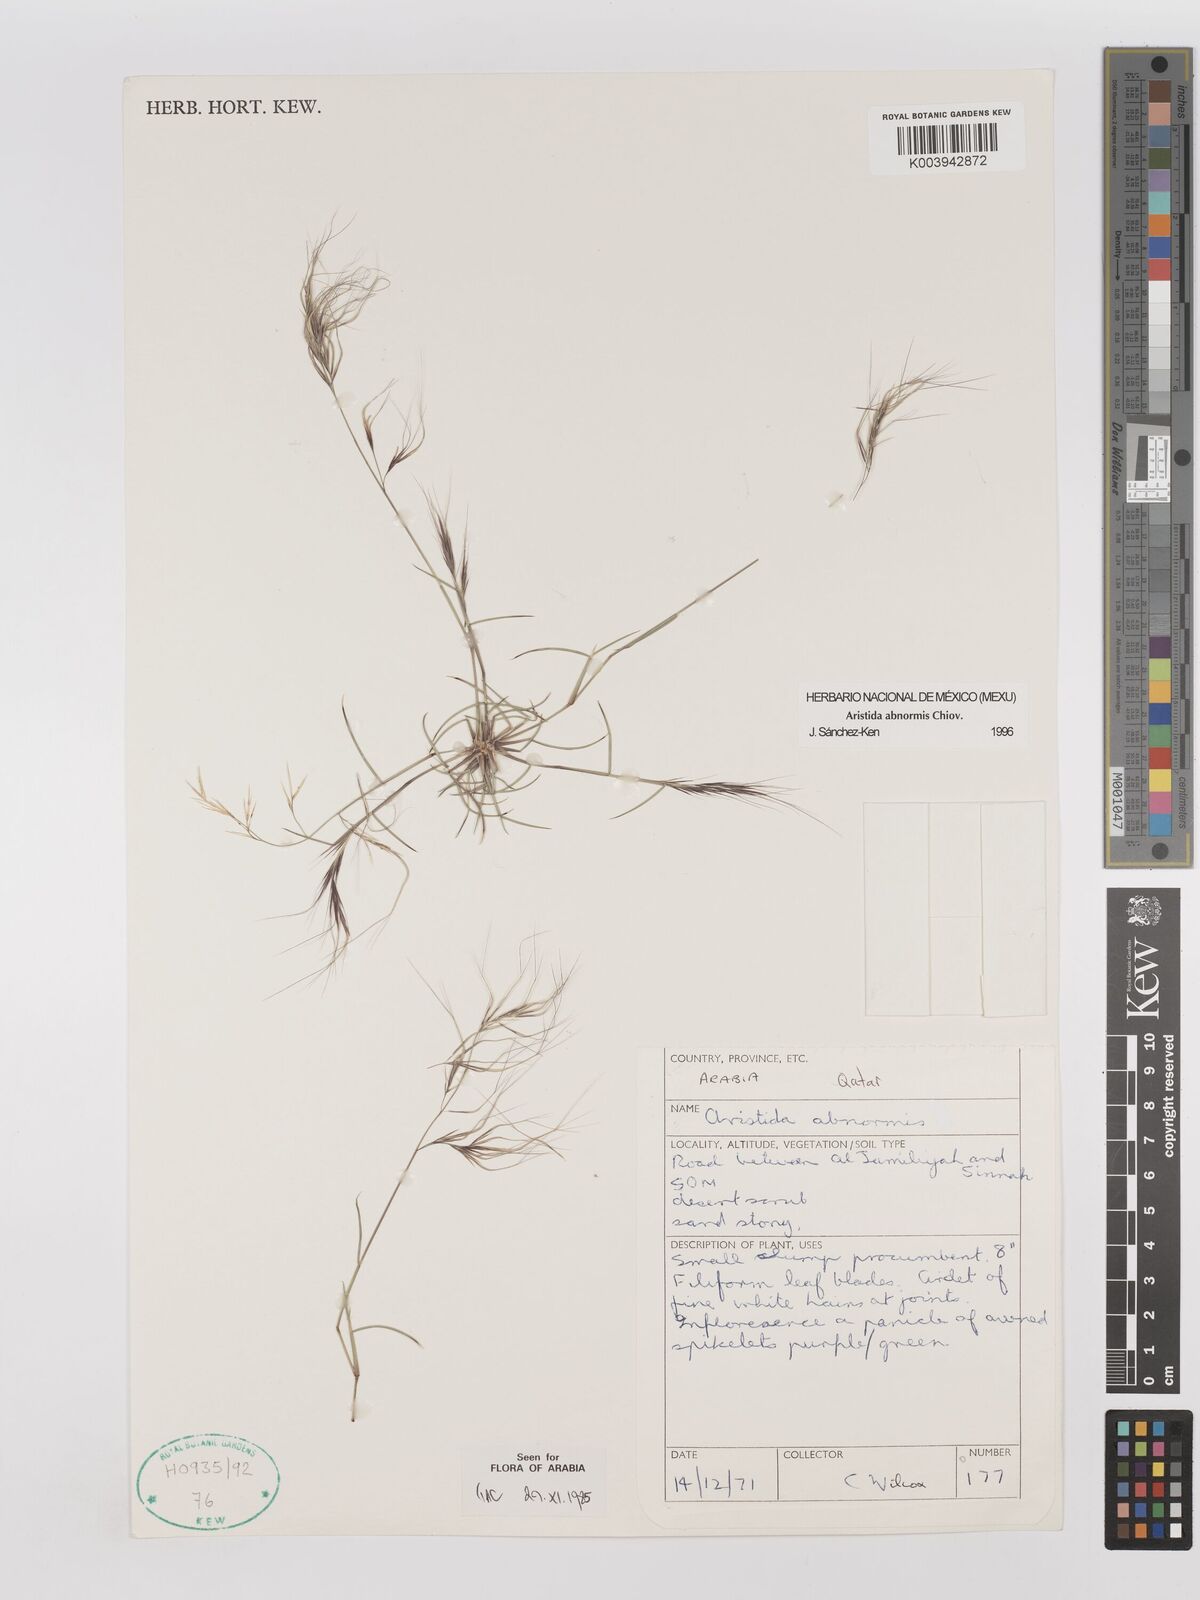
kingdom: Plantae
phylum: Tracheophyta
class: Liliopsida
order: Poales
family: Poaceae
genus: Aristida
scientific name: Aristida abnormis
